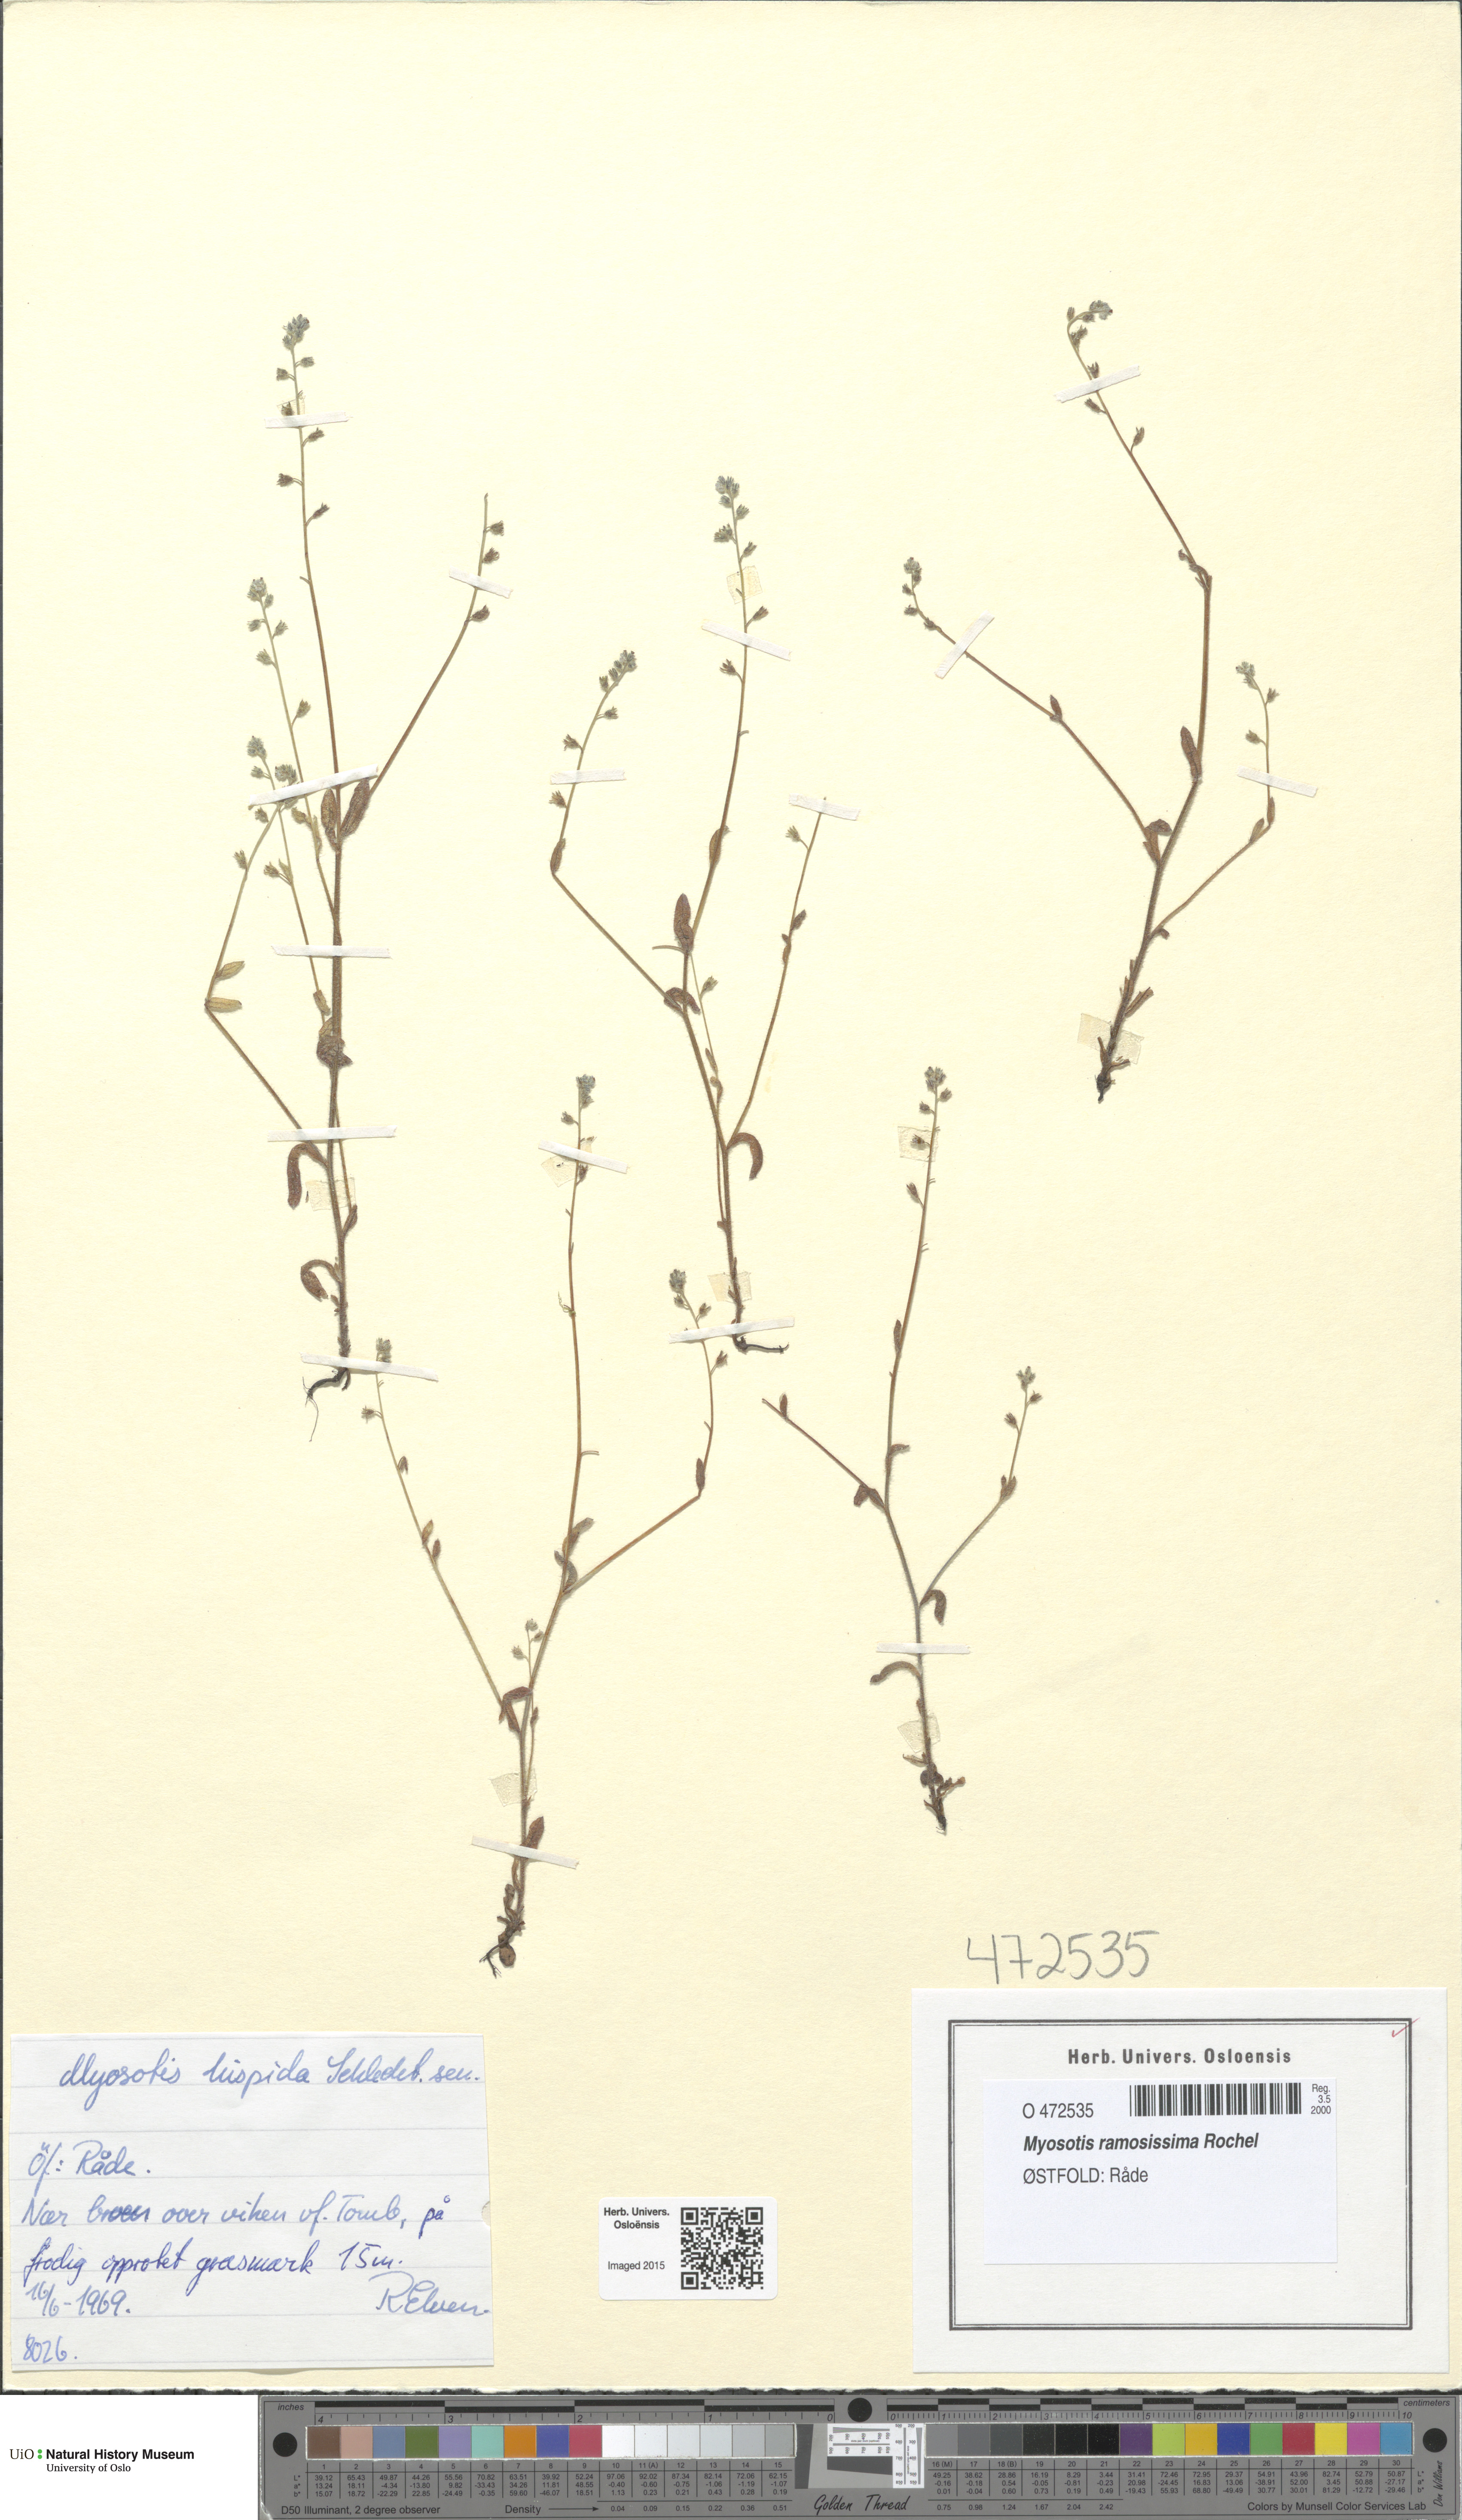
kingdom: Plantae
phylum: Tracheophyta
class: Magnoliopsida
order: Boraginales
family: Boraginaceae
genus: Myosotis
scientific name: Myosotis ramosissima
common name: Early forget-me-not
